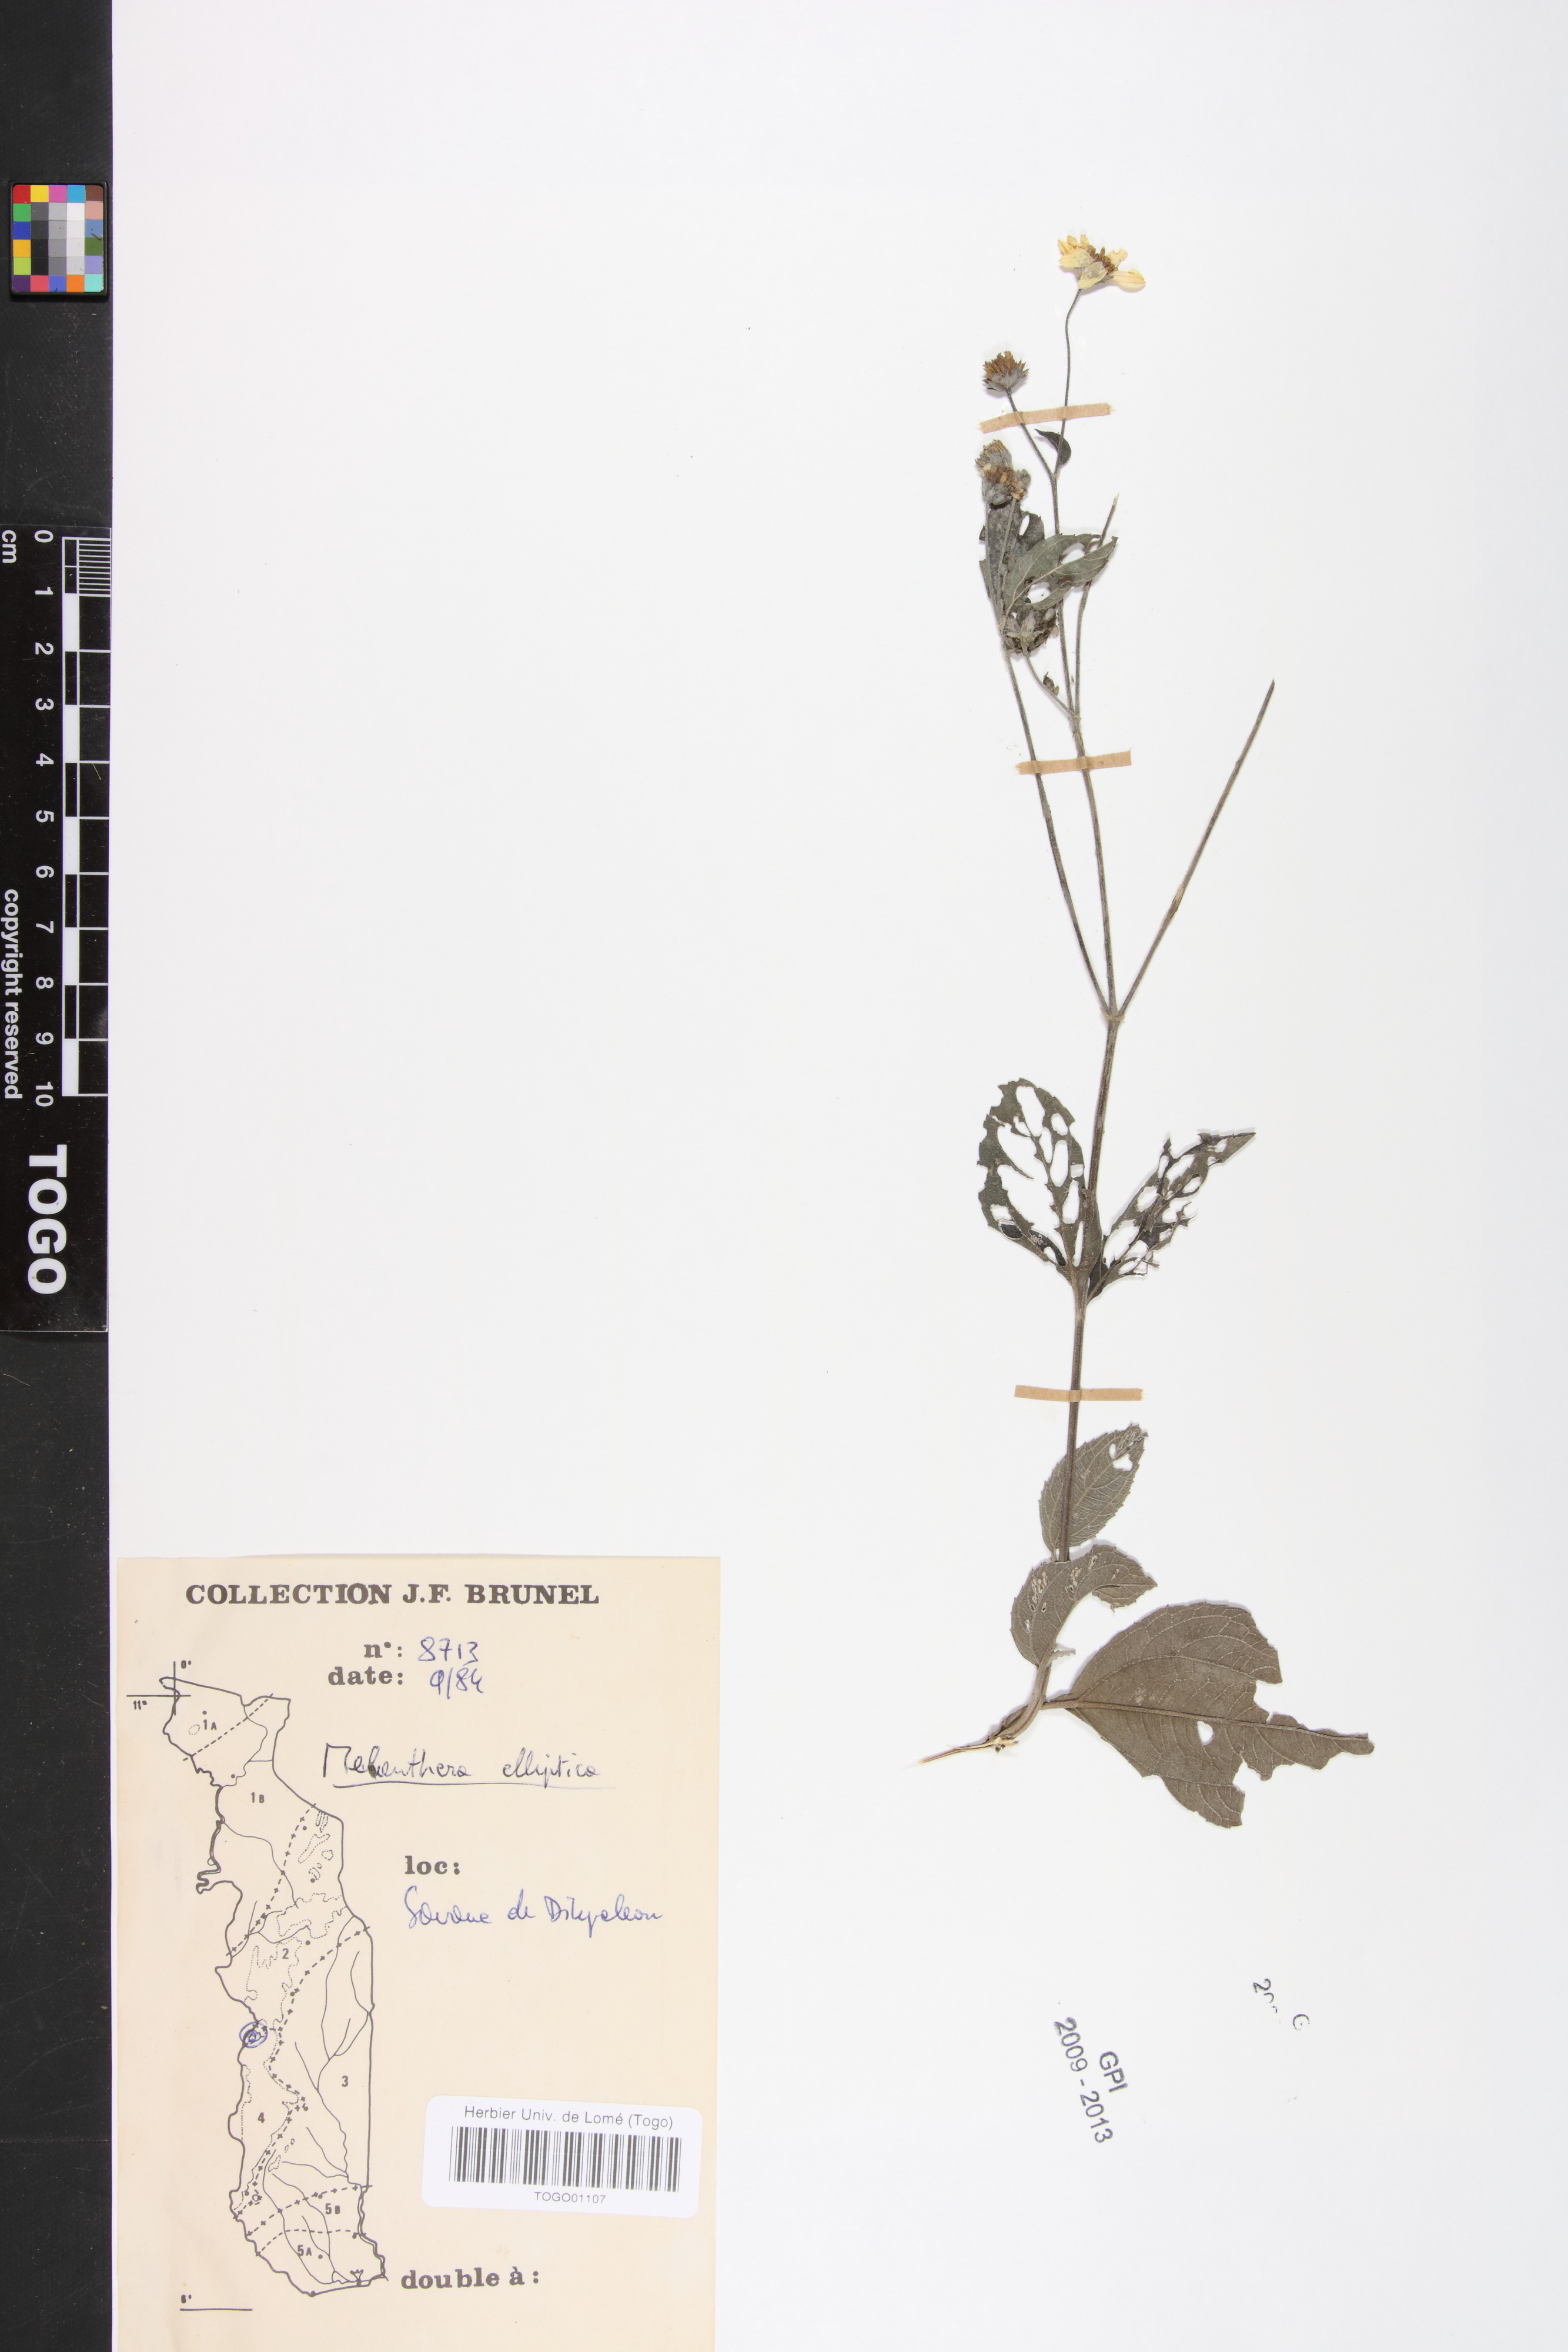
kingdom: Plantae
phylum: Tracheophyta
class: Magnoliopsida
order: Asterales
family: Asteraceae
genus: Lipotriche
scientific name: Lipotriche elliptica
